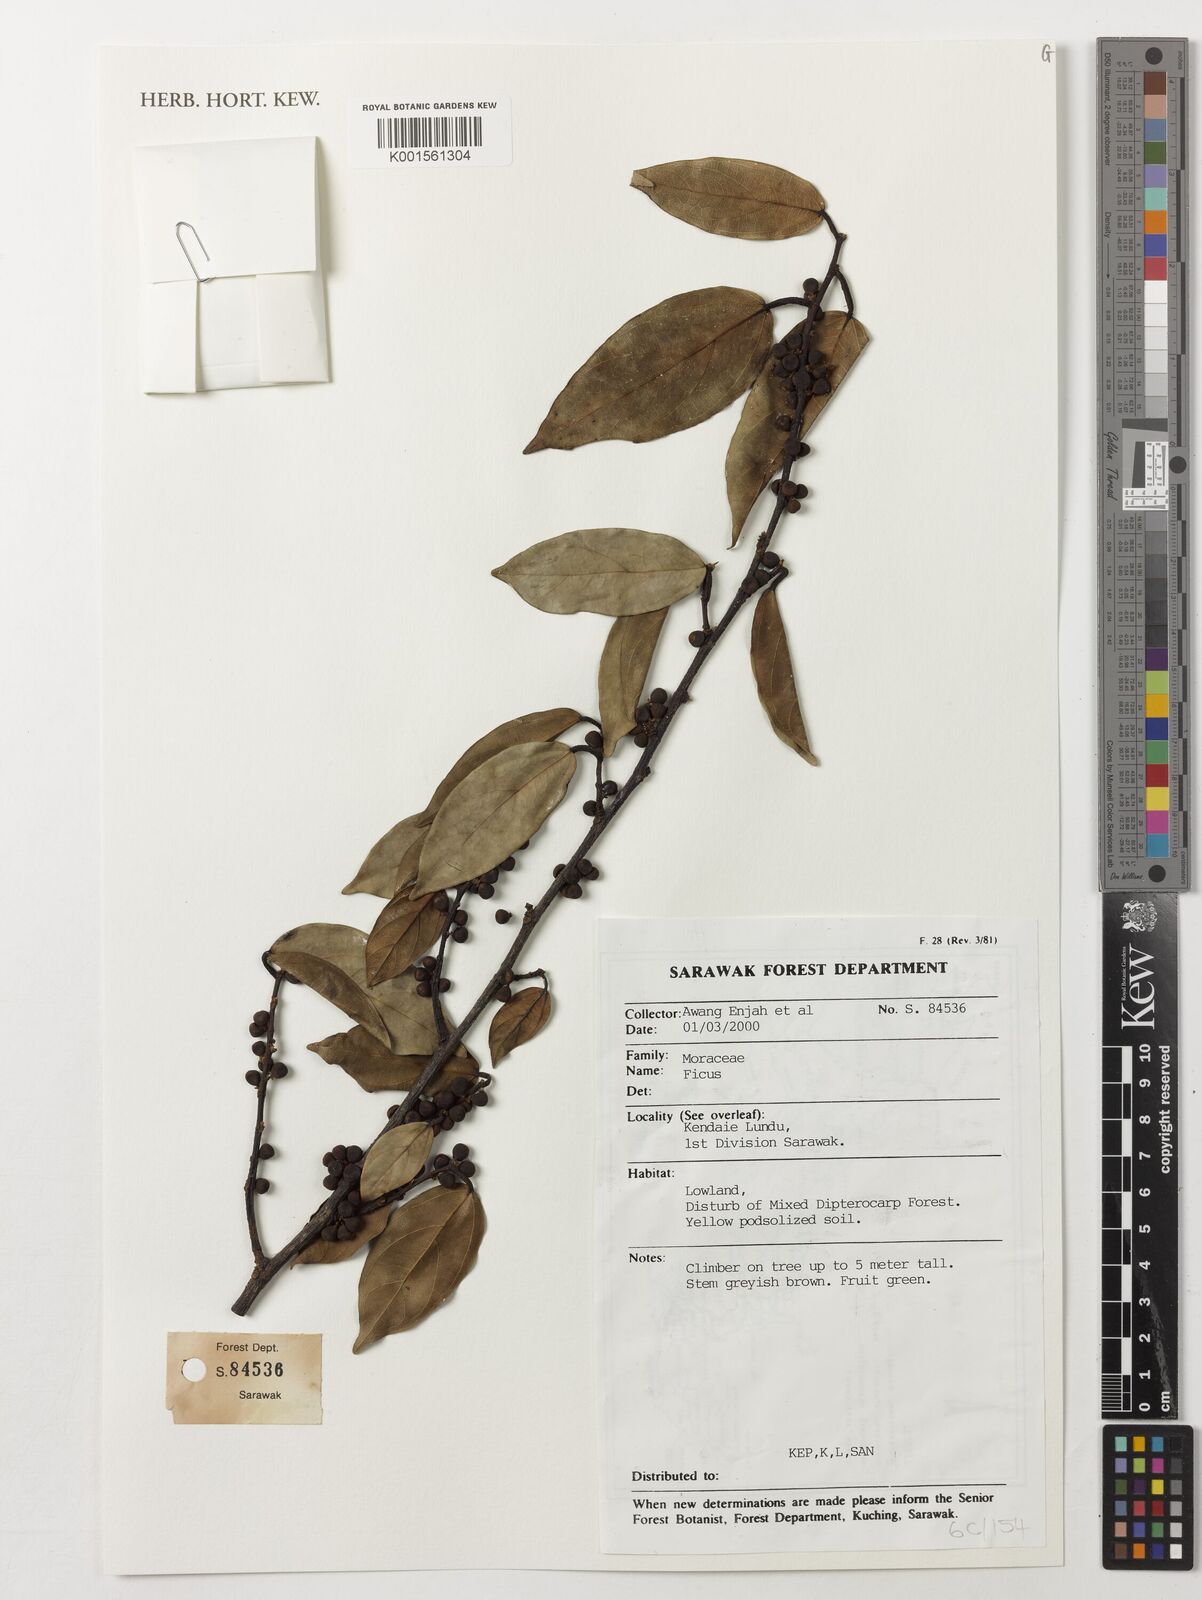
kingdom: Plantae
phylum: Tracheophyta
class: Magnoliopsida
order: Rosales
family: Moraceae
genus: Ficus
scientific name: Ficus
